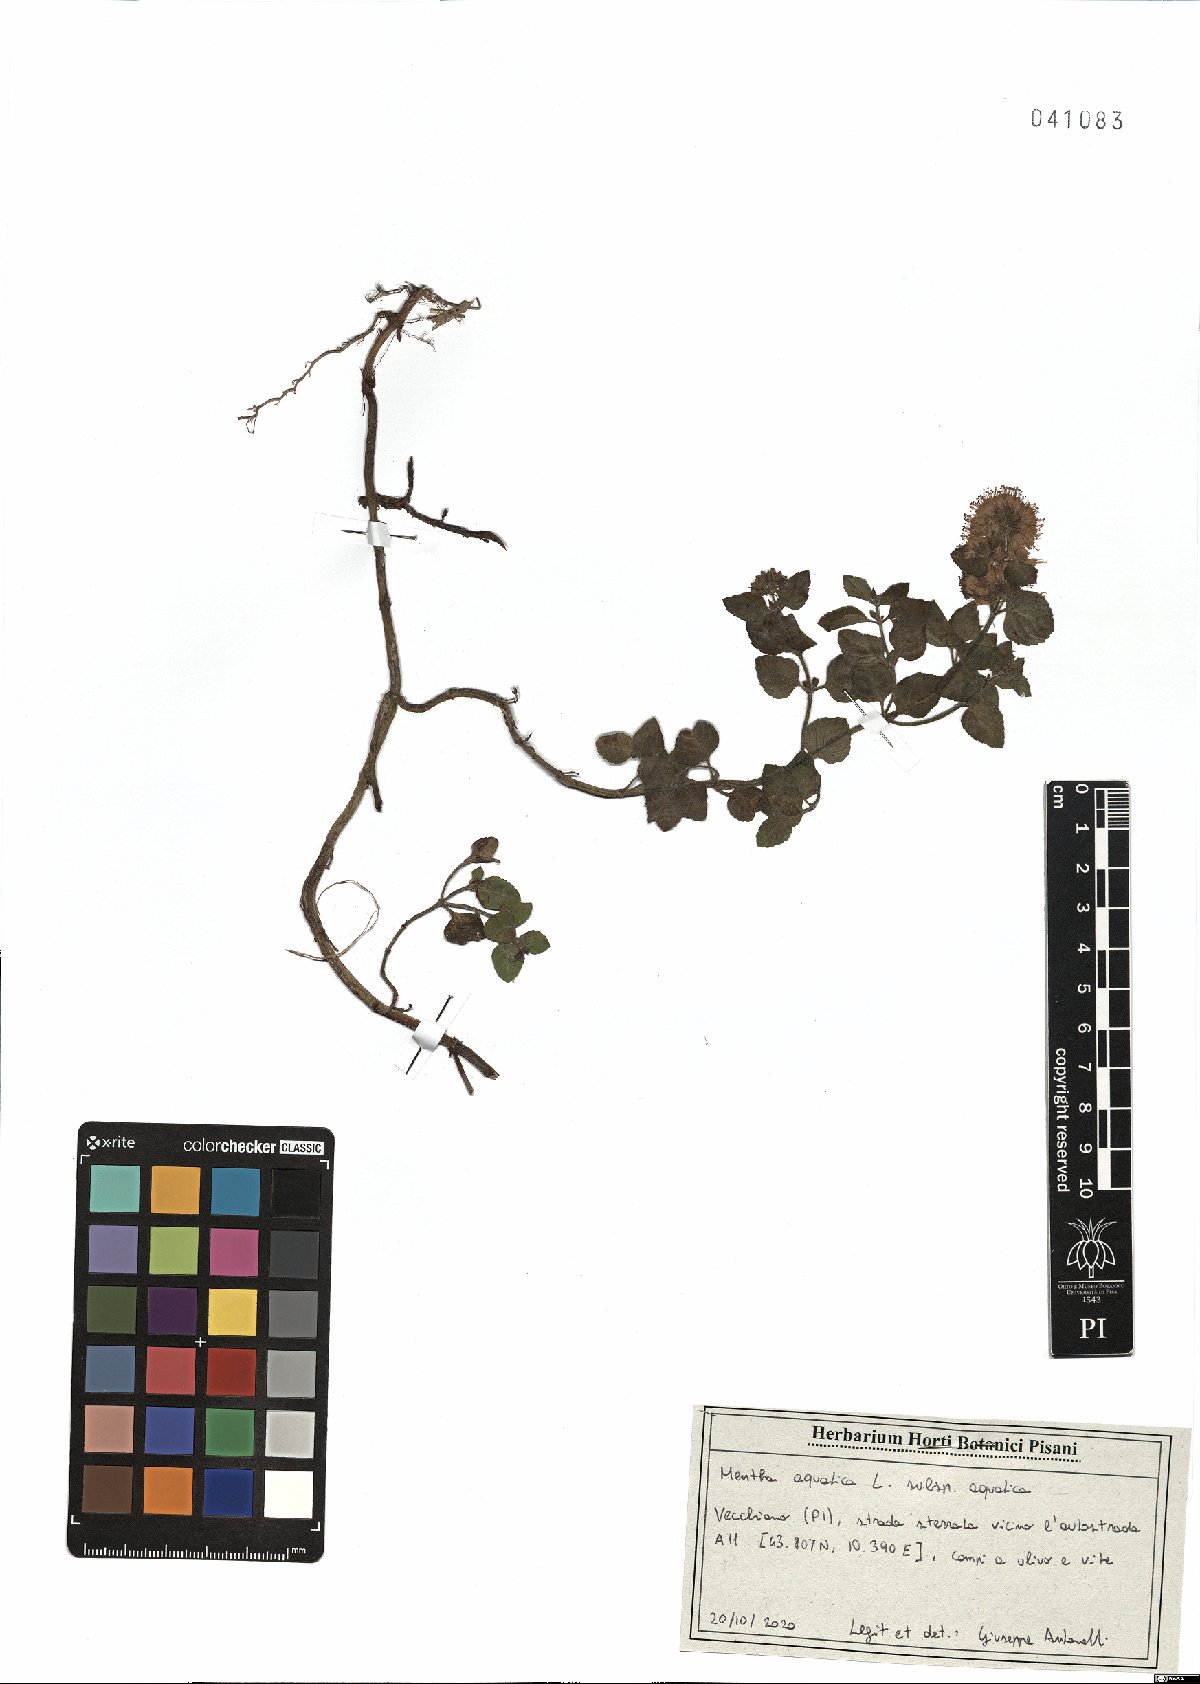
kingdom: Plantae
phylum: Tracheophyta
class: Magnoliopsida
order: Lamiales
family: Lamiaceae
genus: Mentha
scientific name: Mentha aquatica
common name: Water mint
